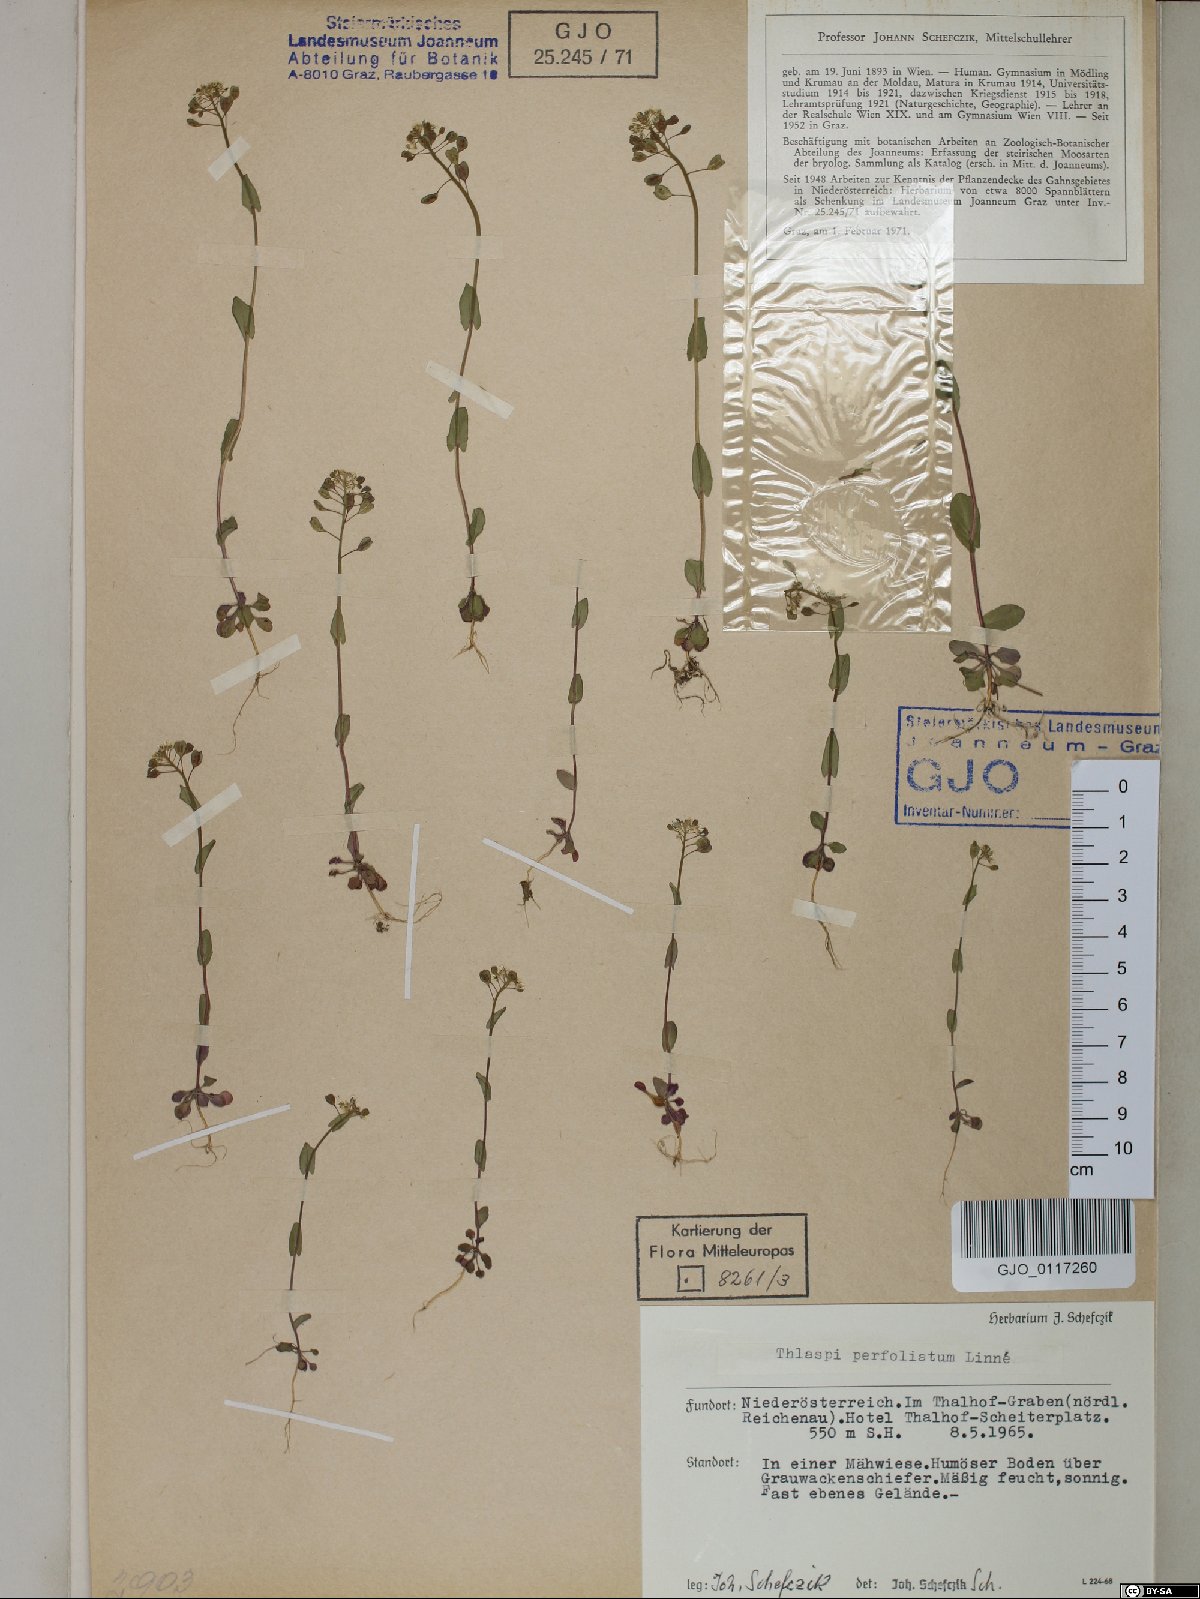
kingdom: Plantae
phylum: Tracheophyta
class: Magnoliopsida
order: Brassicales
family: Brassicaceae
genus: Noccaea
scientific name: Noccaea perfoliata
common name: Perfoliate pennycress
